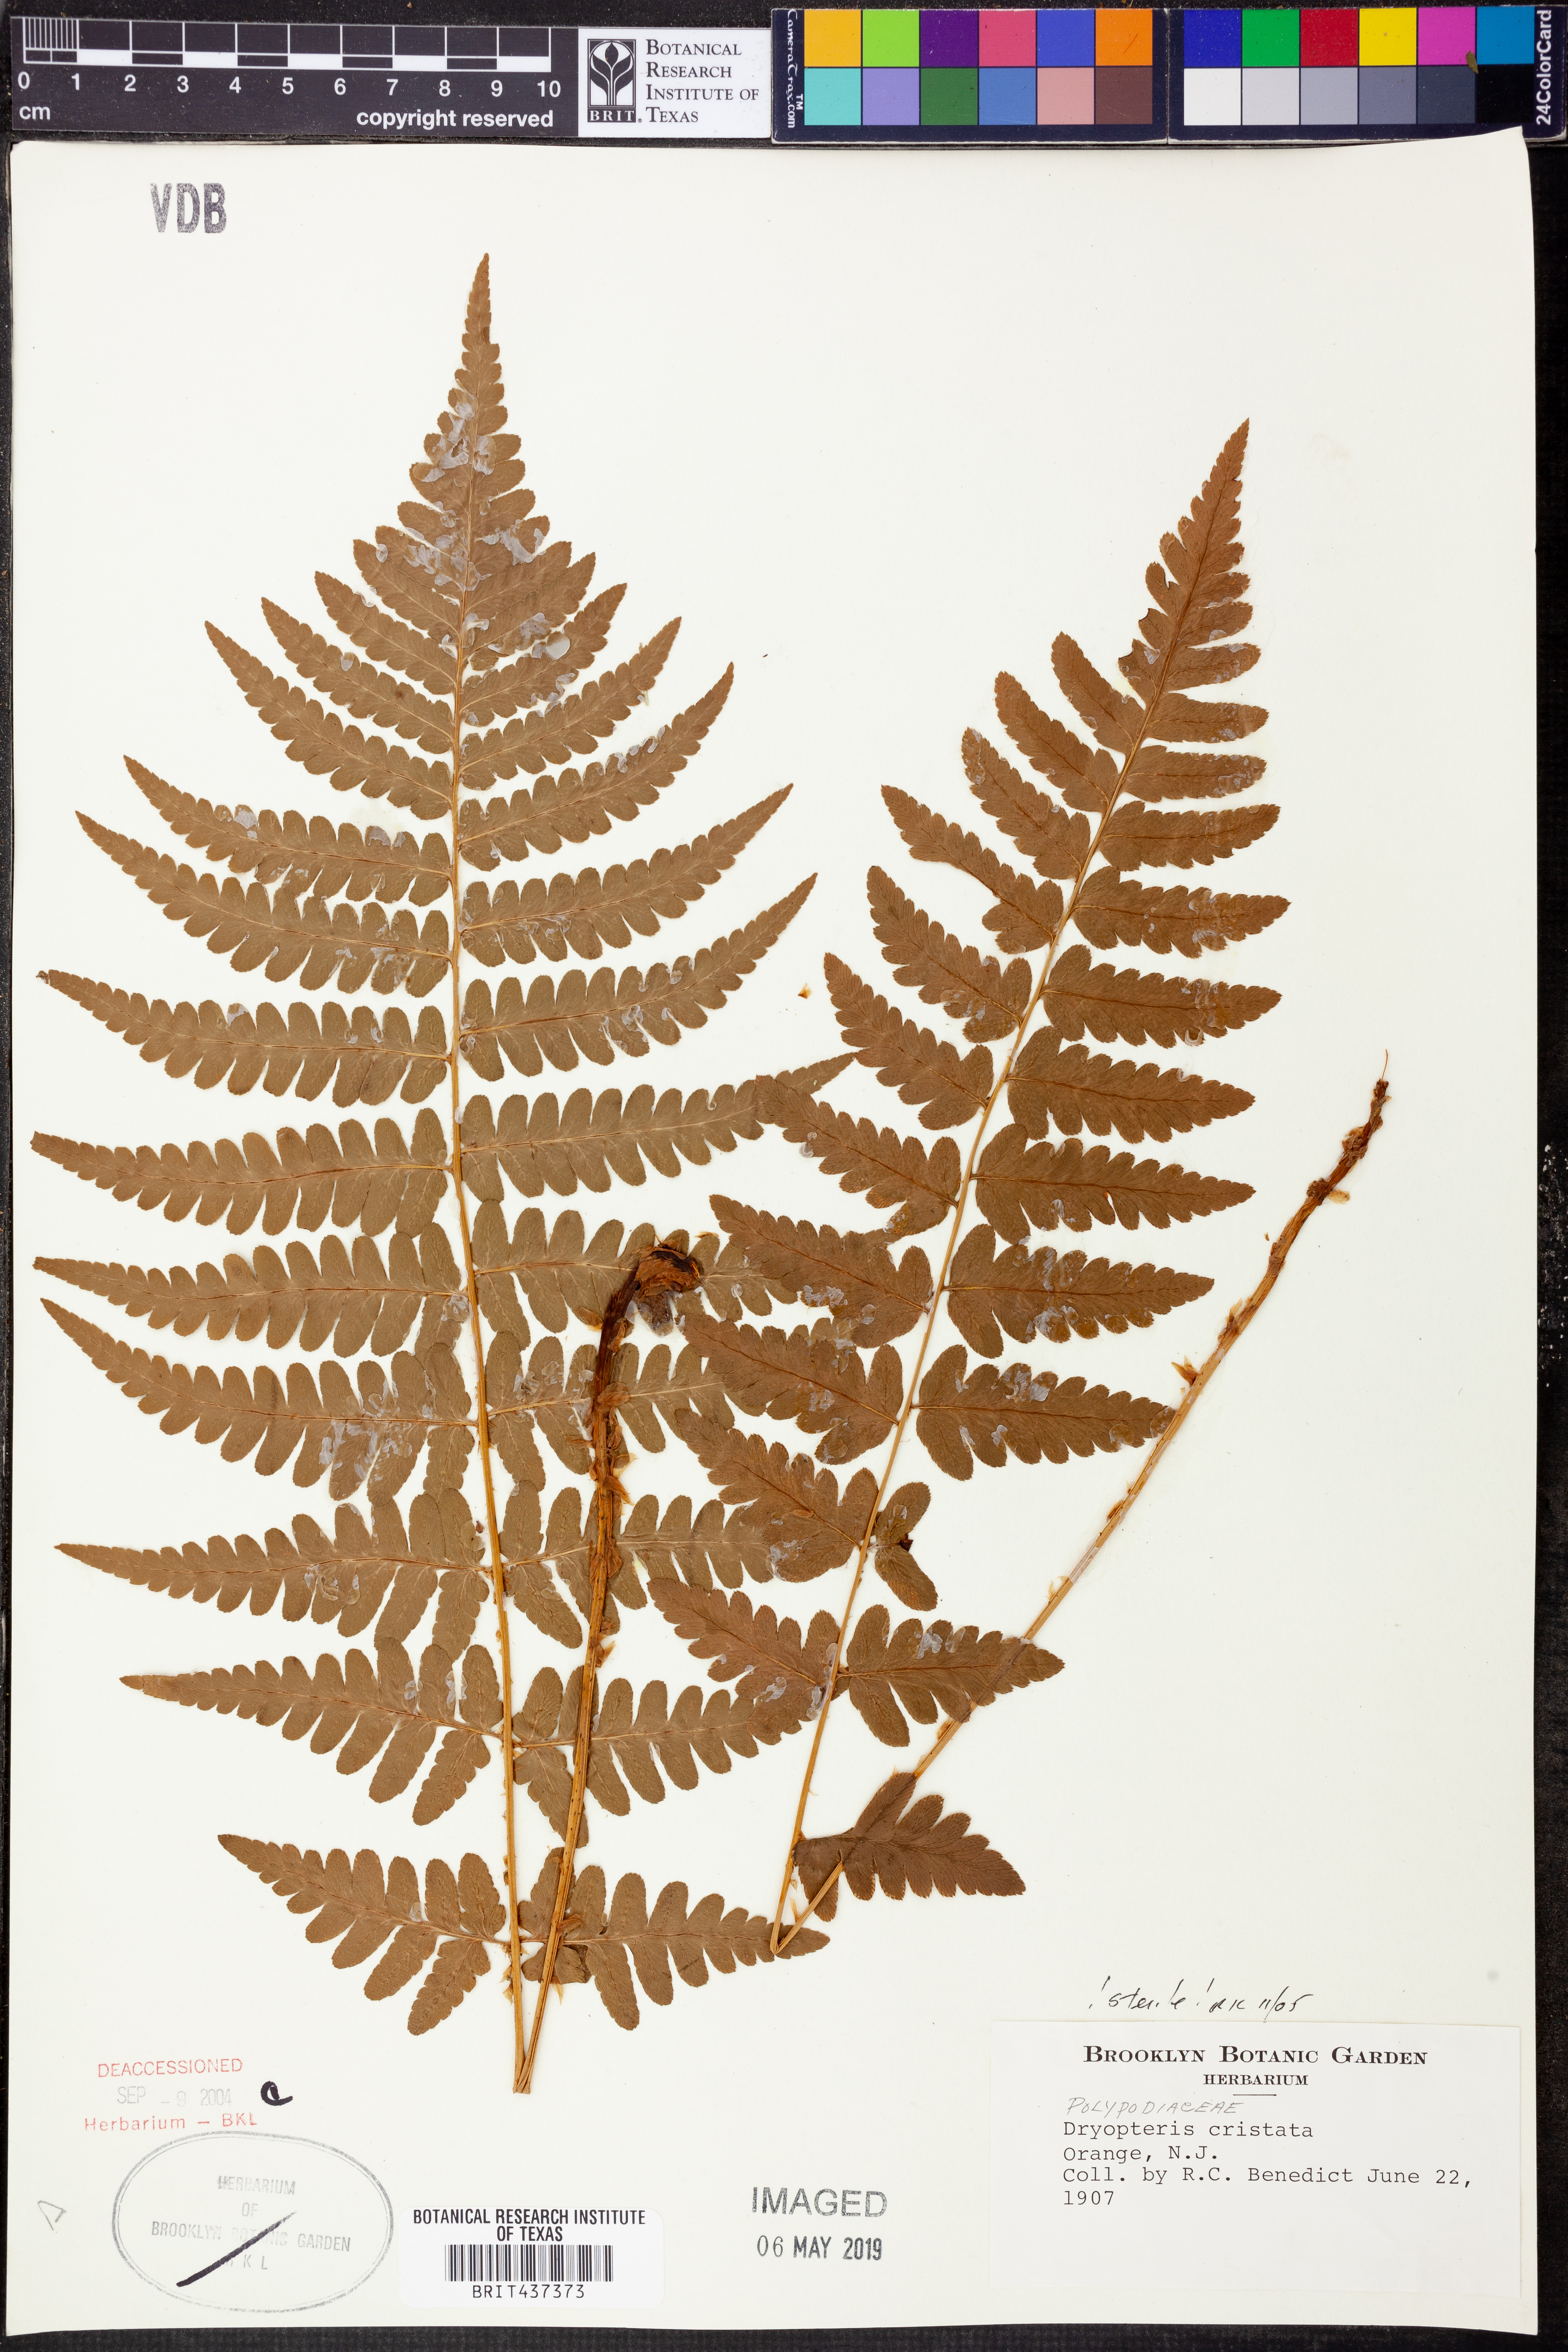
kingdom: Plantae
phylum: Tracheophyta
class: Polypodiopsida
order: Polypodiales
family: Dryopteridaceae
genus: Dryopteris
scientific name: Dryopteris cristata
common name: Crested wood fern
